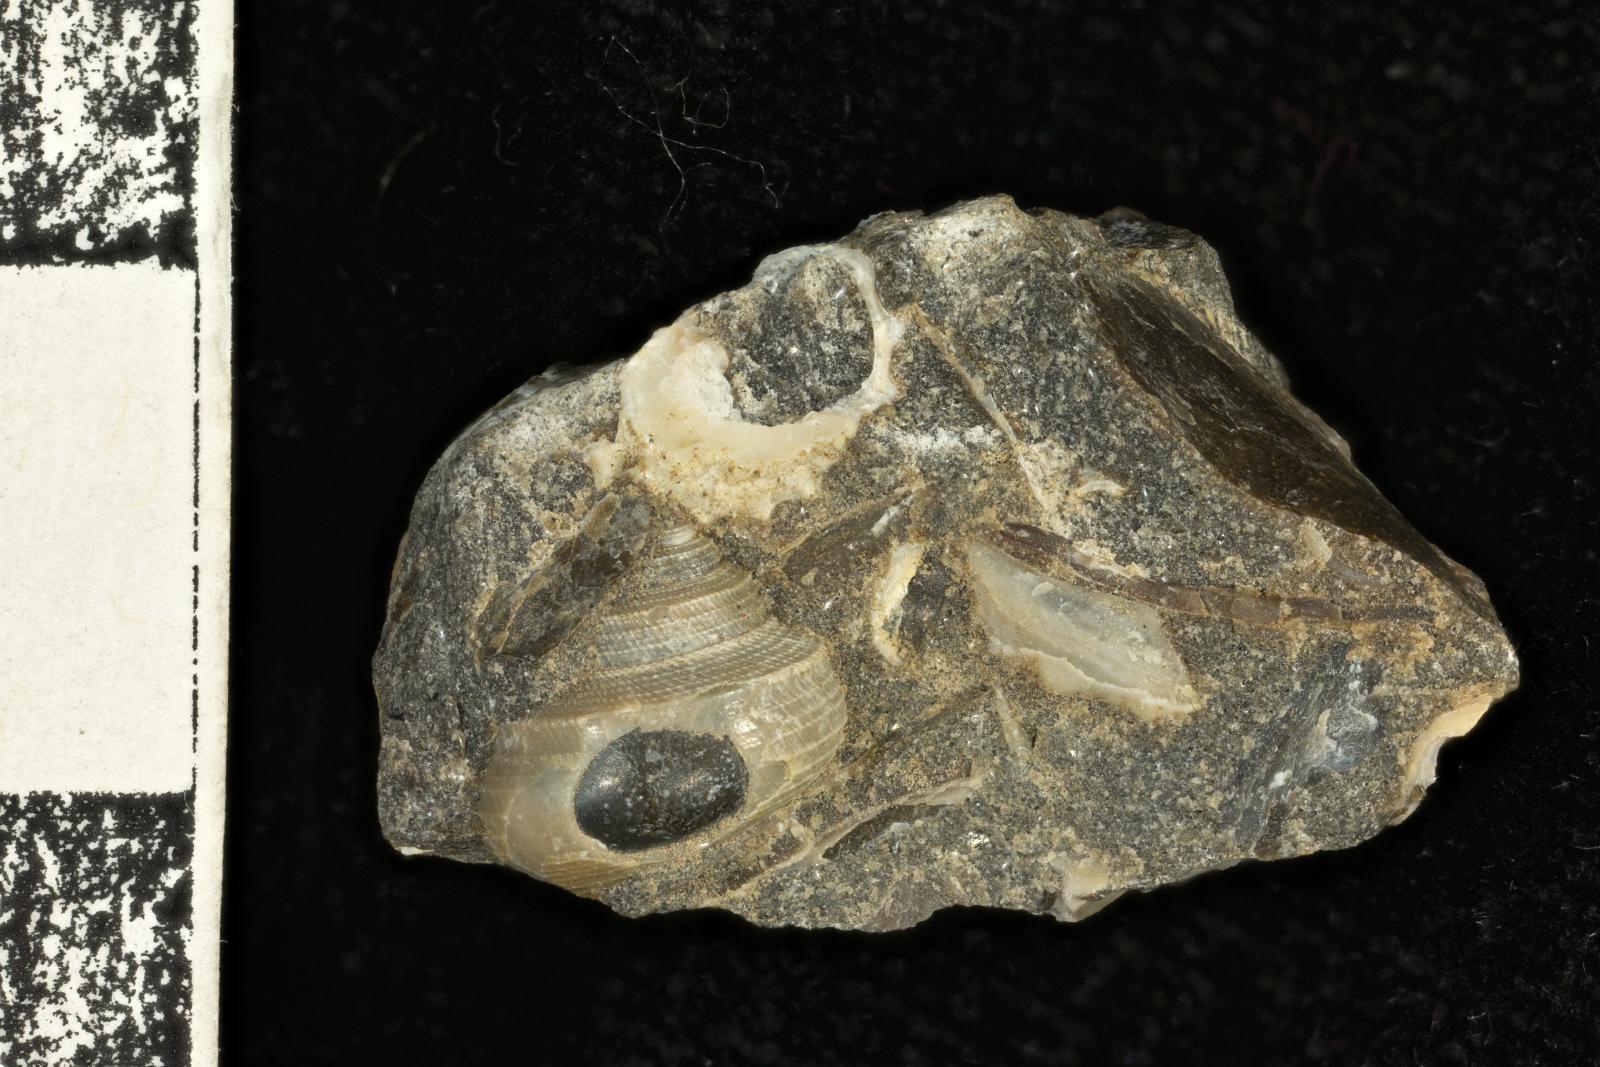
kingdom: Animalia
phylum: Mollusca
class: Bivalvia
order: Ostreida
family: Pteriidae
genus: Atira
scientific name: Atira Angaria ornatissima
